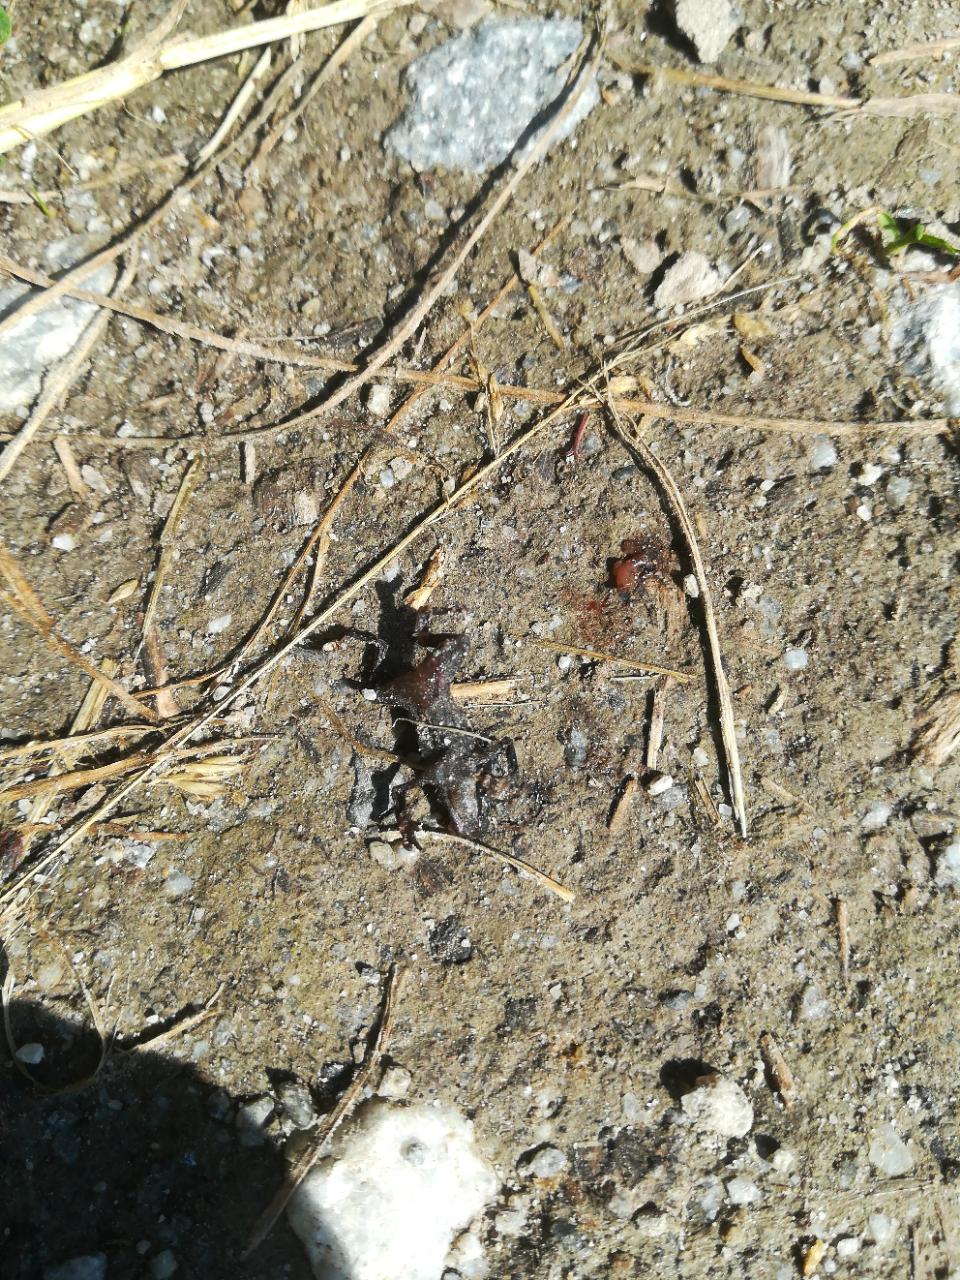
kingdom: Animalia
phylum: Chordata
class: Amphibia
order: Anura
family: Bufonidae
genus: Bufo
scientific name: Bufo bufo
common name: Common toad
